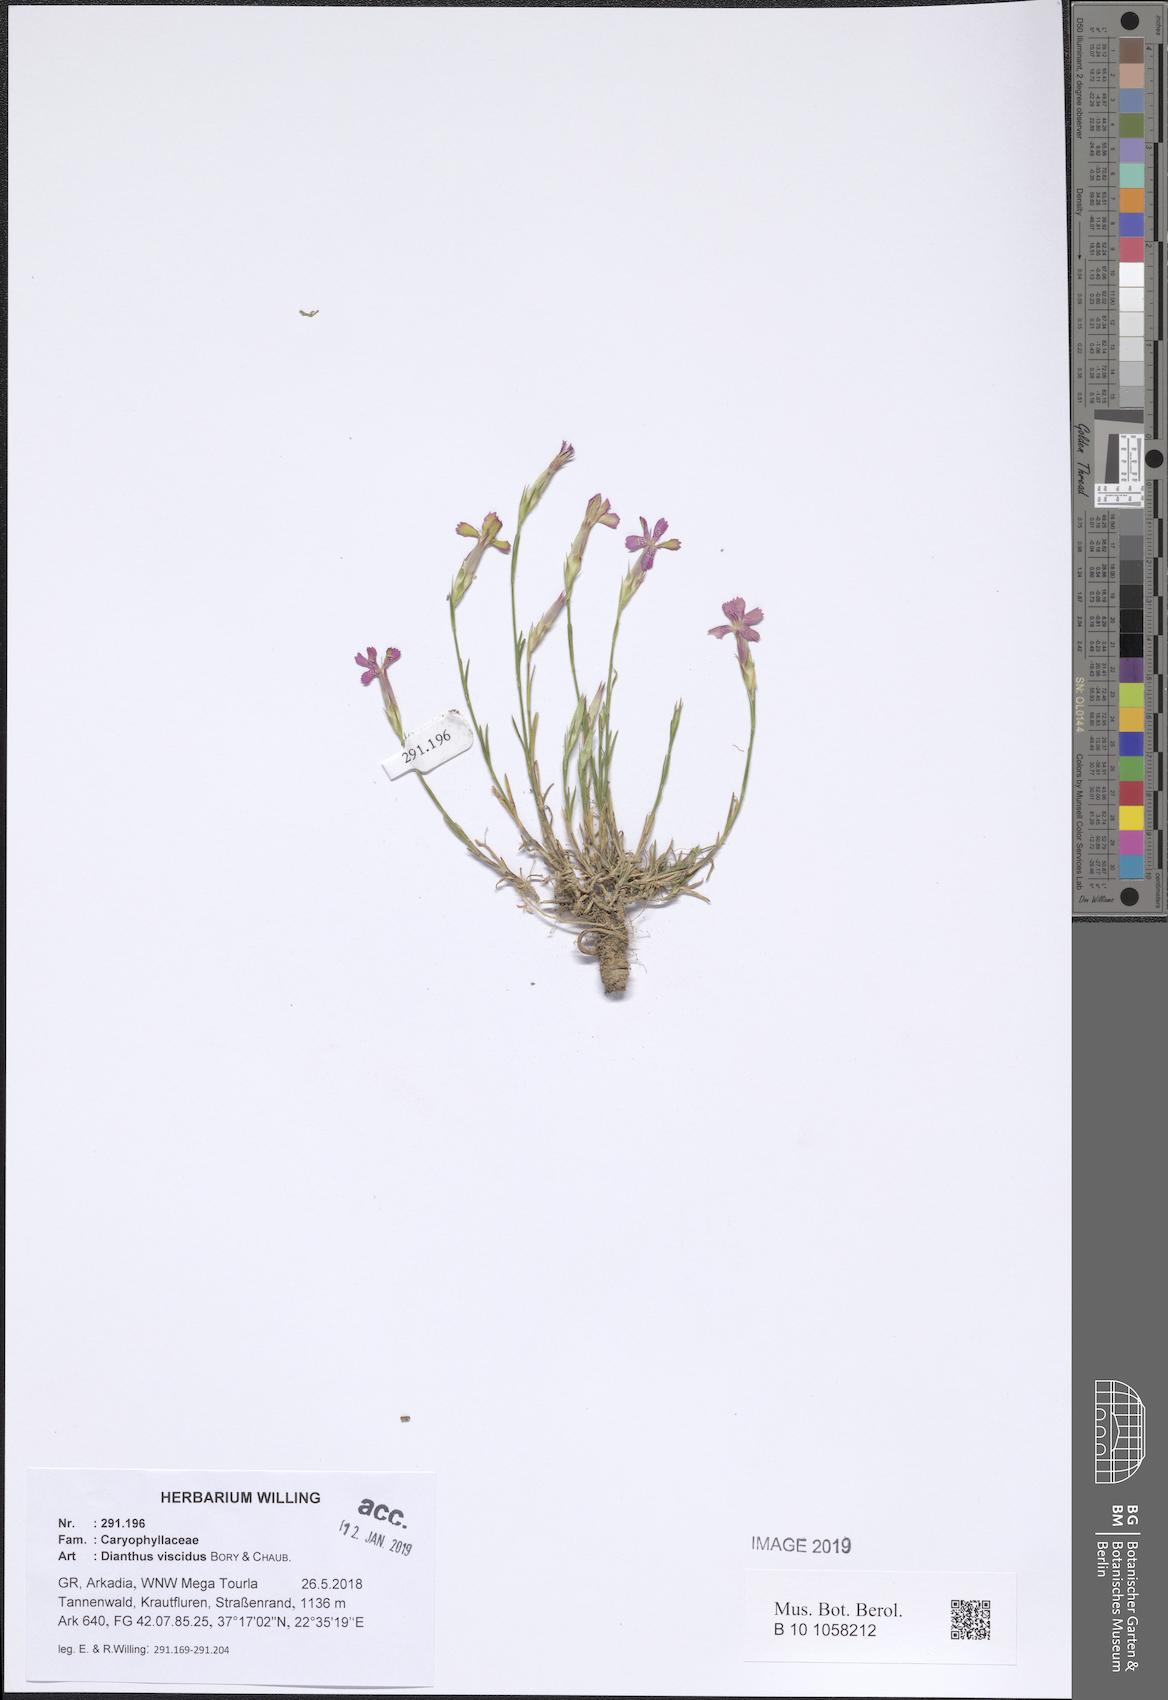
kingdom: Plantae
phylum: Tracheophyta
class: Magnoliopsida
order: Caryophyllales
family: Caryophyllaceae
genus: Dianthus
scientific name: Dianthus viscidus
